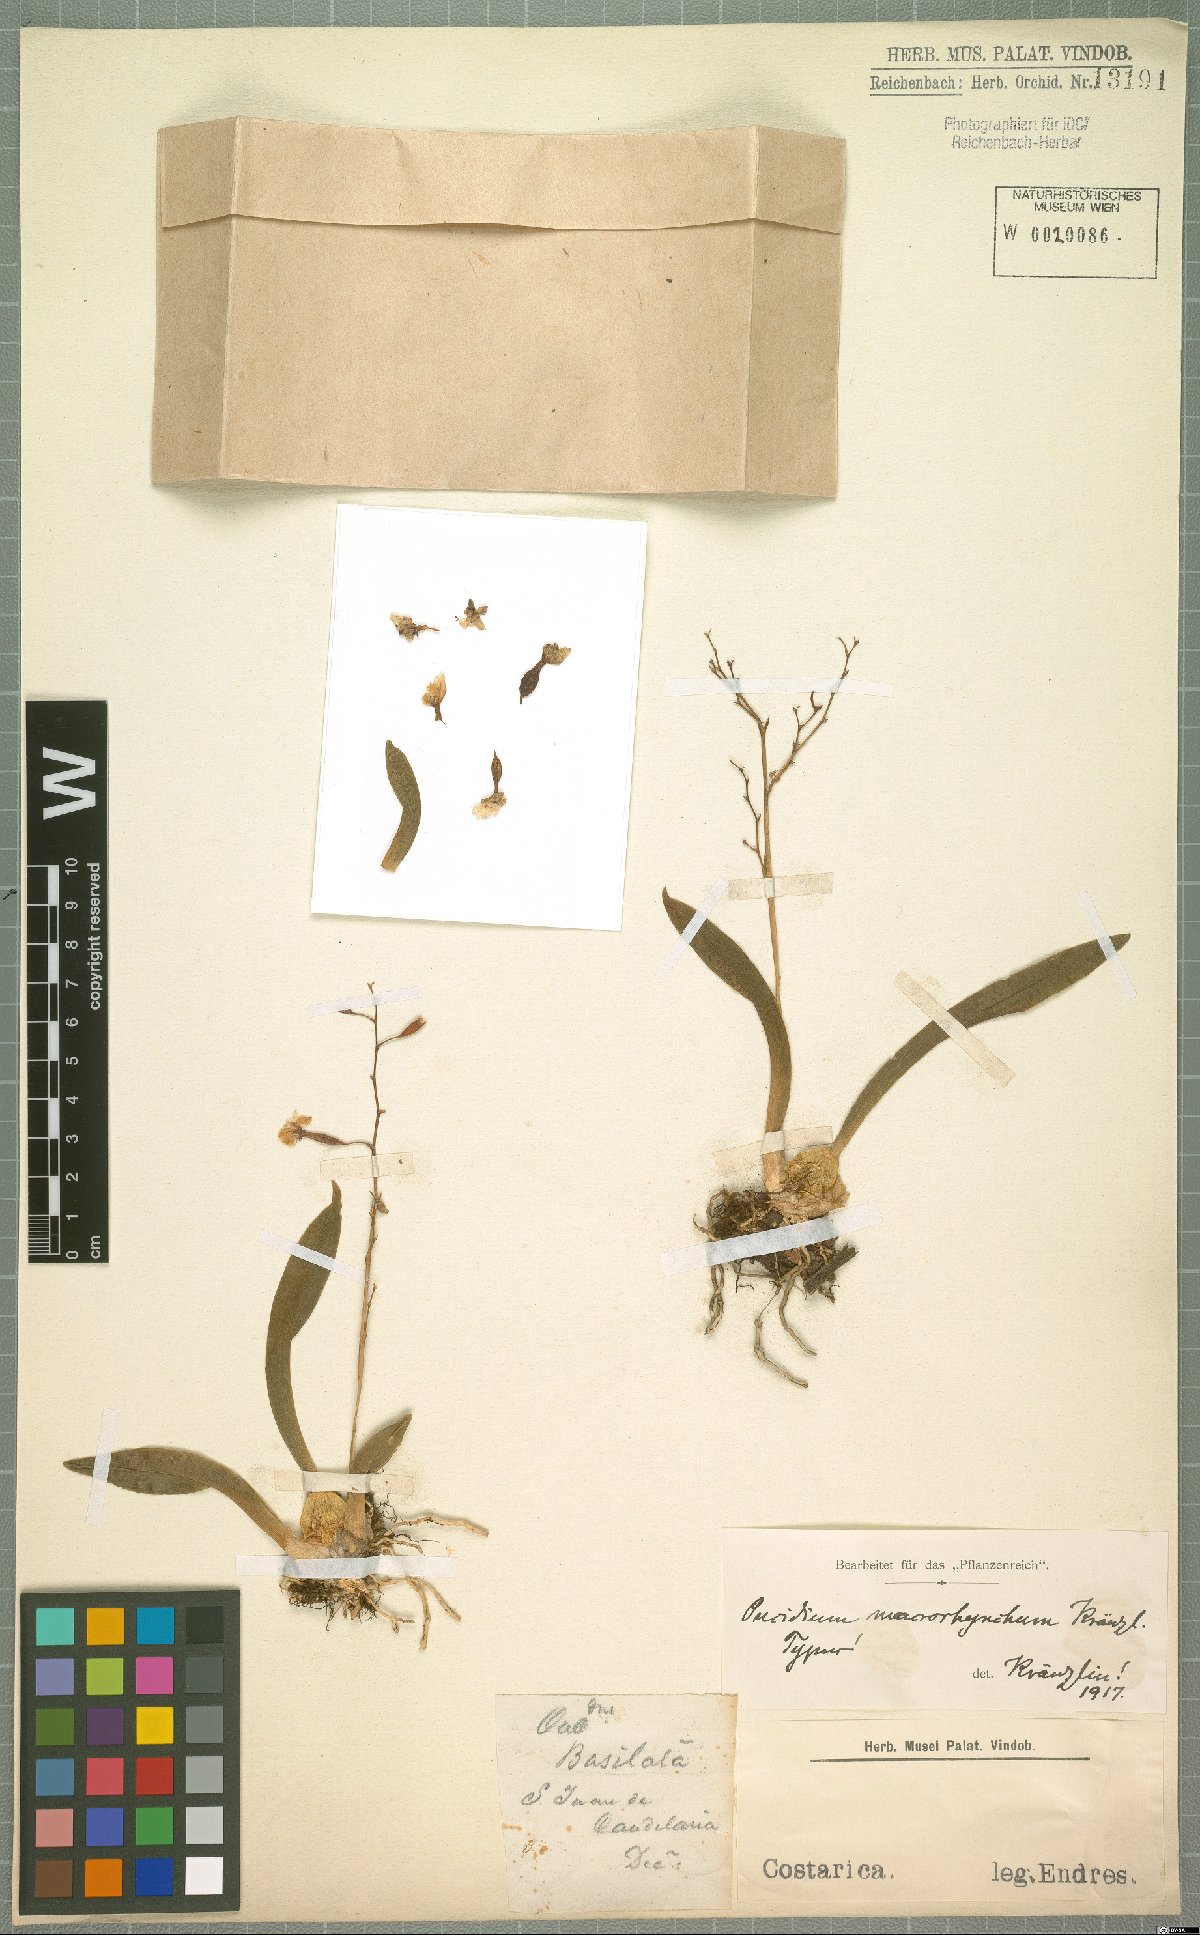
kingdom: Plantae
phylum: Tracheophyta
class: Liliopsida
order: Asparagales
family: Orchidaceae
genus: Oncidium
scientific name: Oncidium cheirophorum
